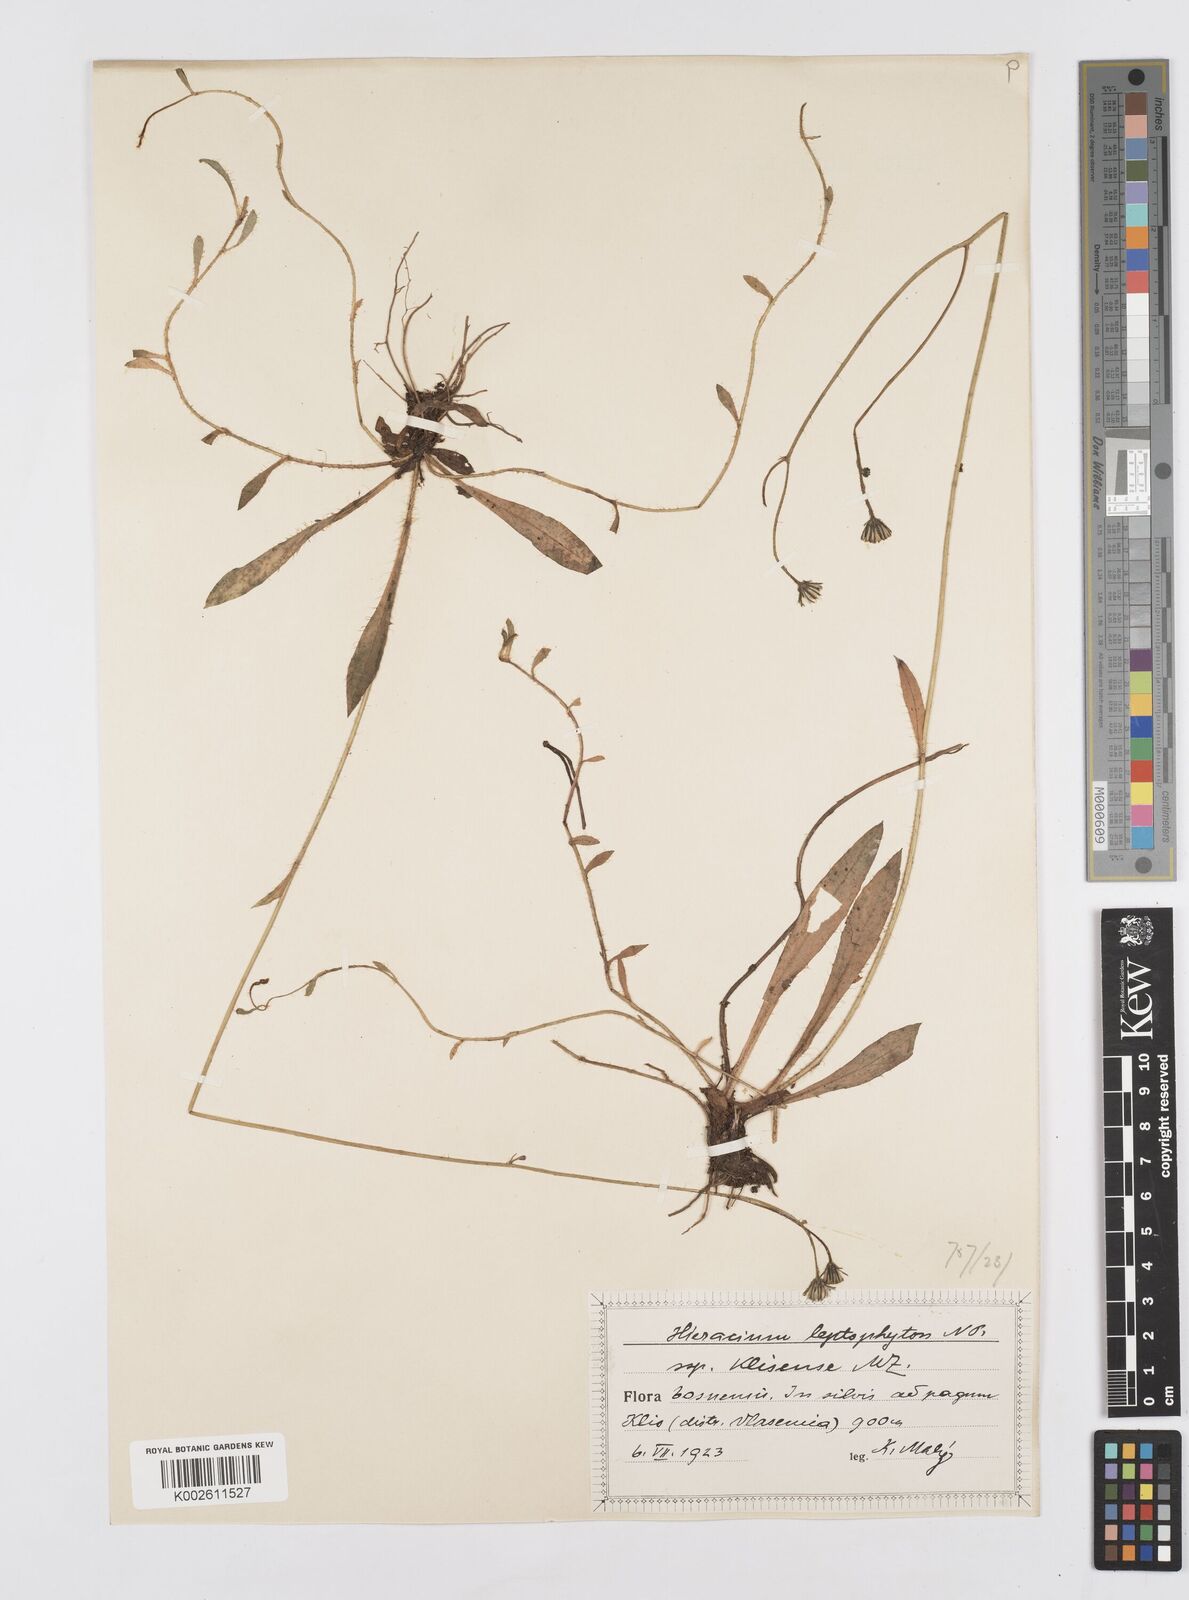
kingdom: Plantae
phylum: Tracheophyta
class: Magnoliopsida
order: Asterales
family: Asteraceae
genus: Pilosella
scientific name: Pilosella leptophyton
